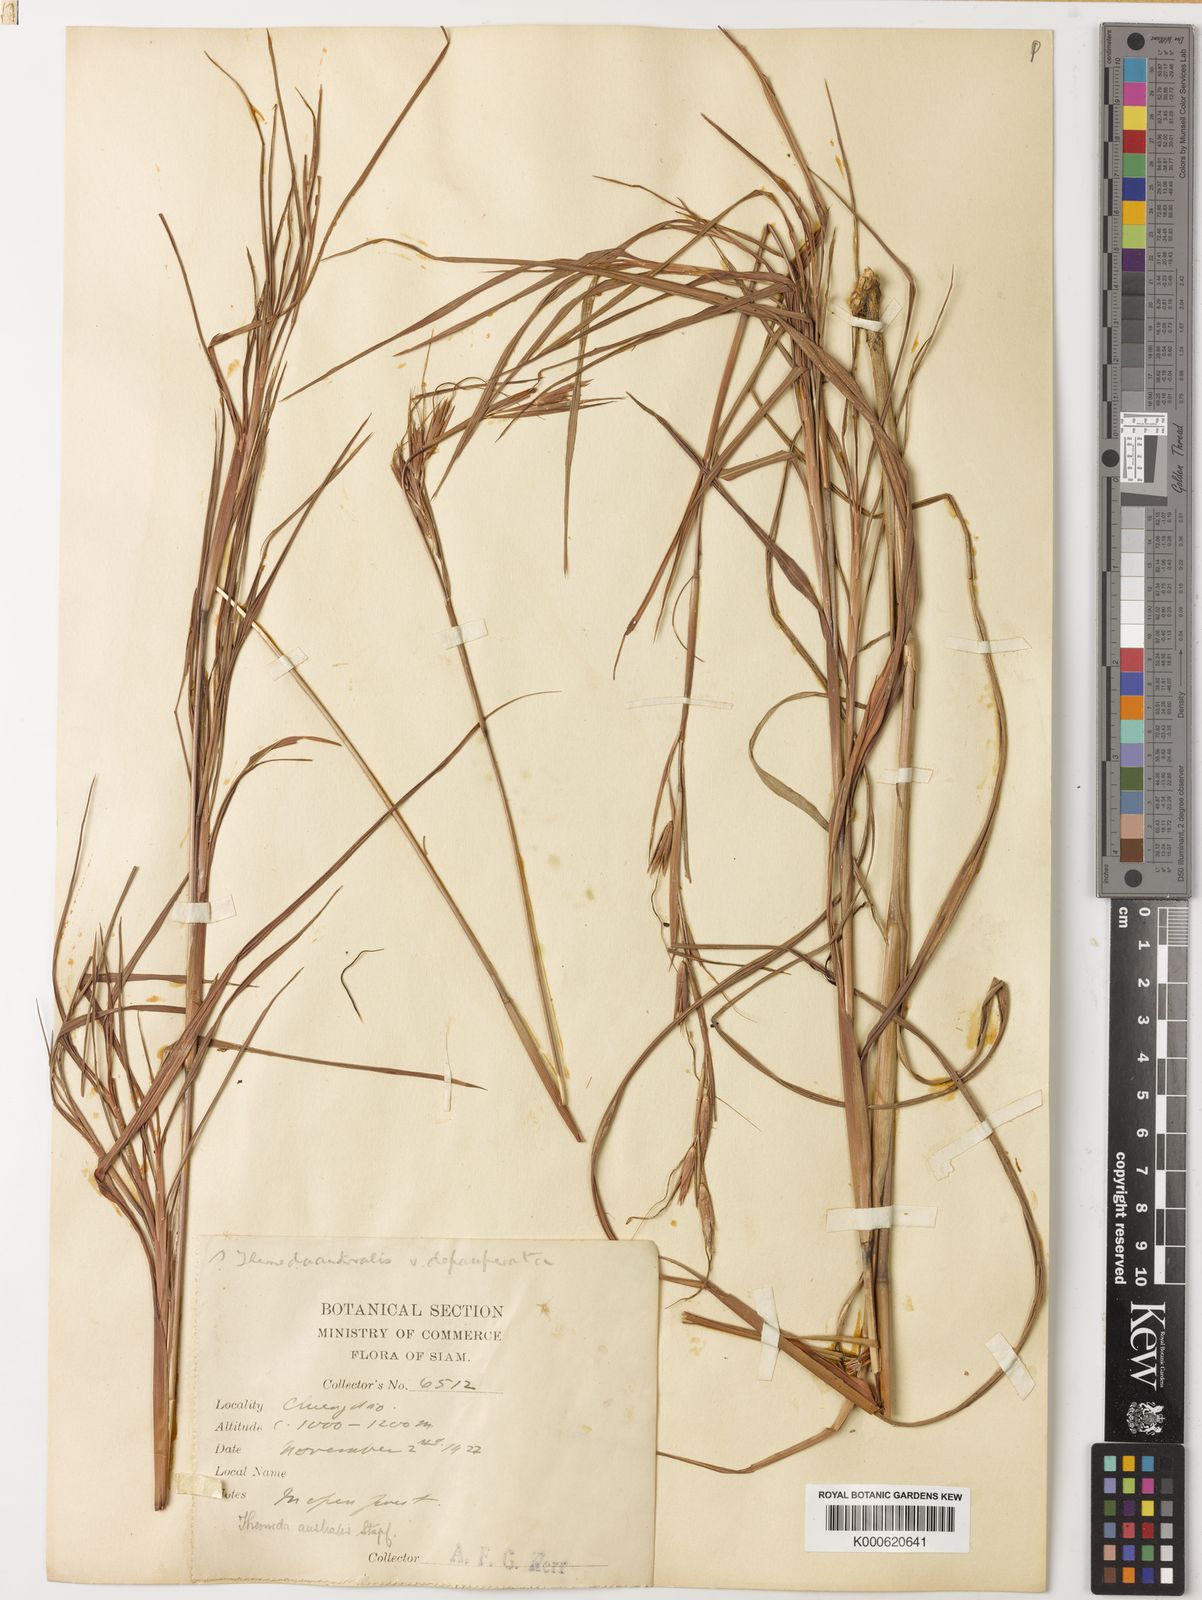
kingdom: Plantae
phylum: Tracheophyta
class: Liliopsida
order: Poales
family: Poaceae
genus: Themeda
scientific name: Themeda triandra
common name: Kangaroo grass
